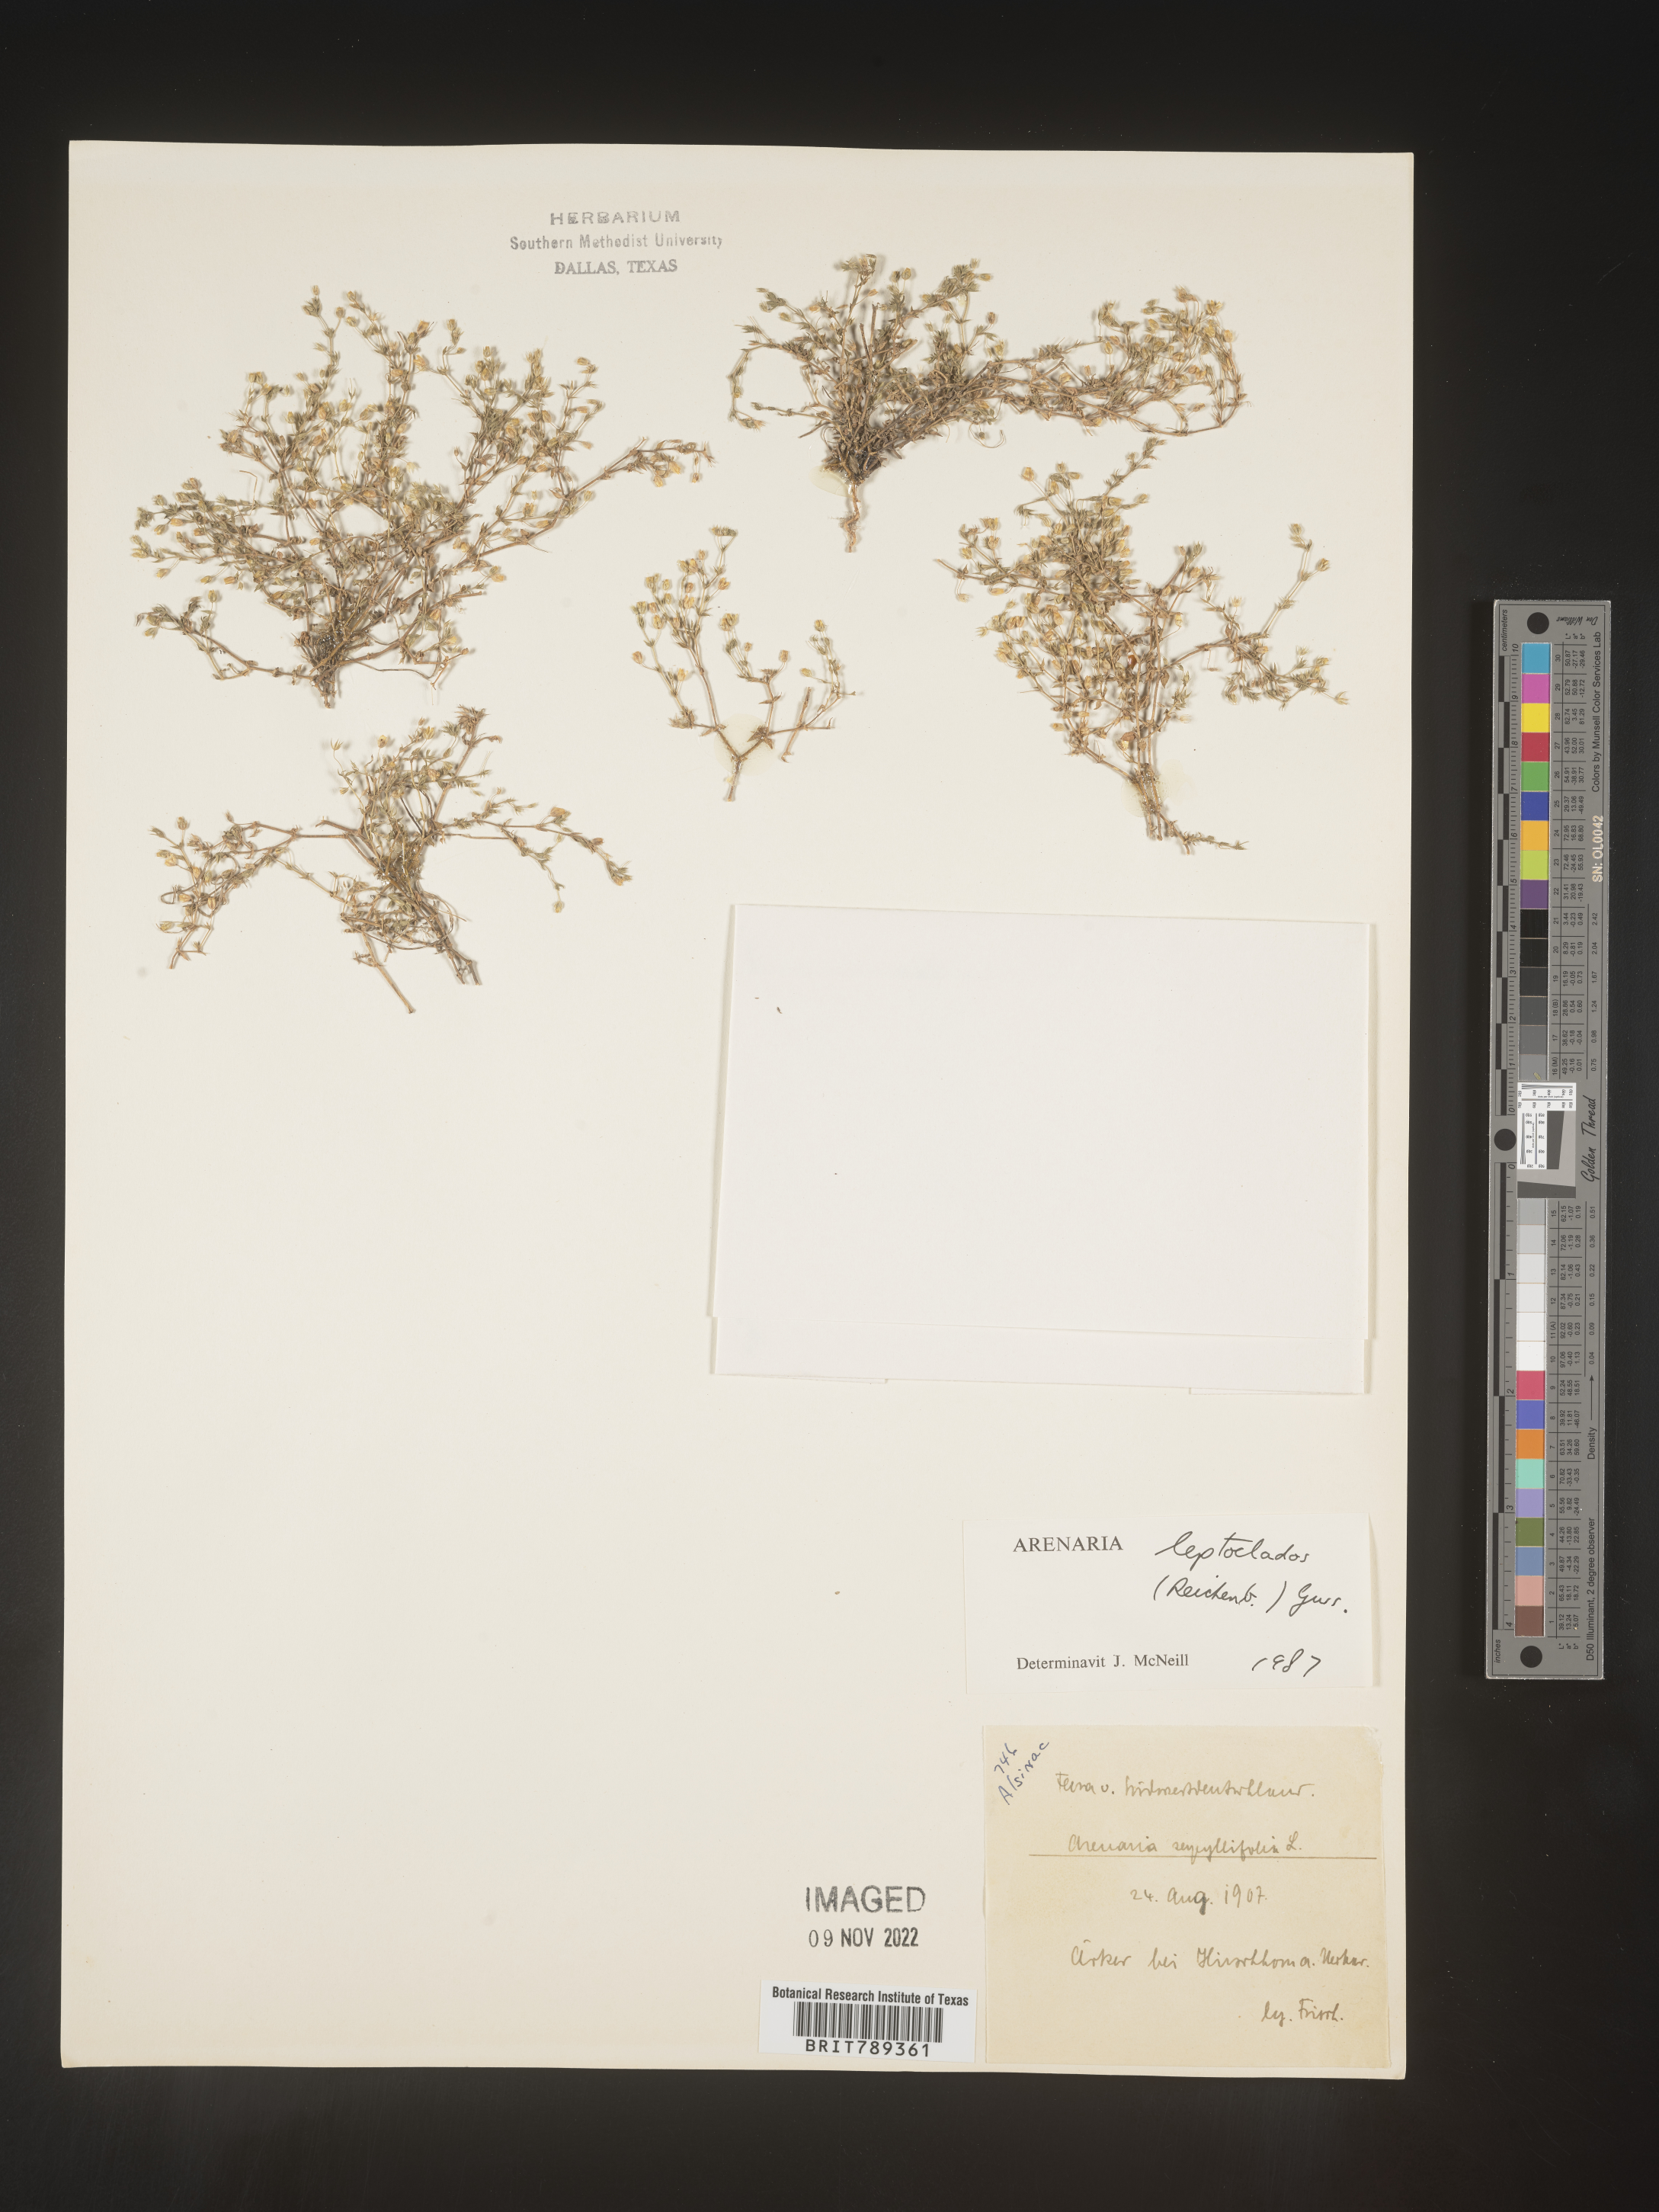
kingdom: Plantae
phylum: Tracheophyta
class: Magnoliopsida
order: Caryophyllales
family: Caryophyllaceae
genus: Arenaria
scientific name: Arenaria
